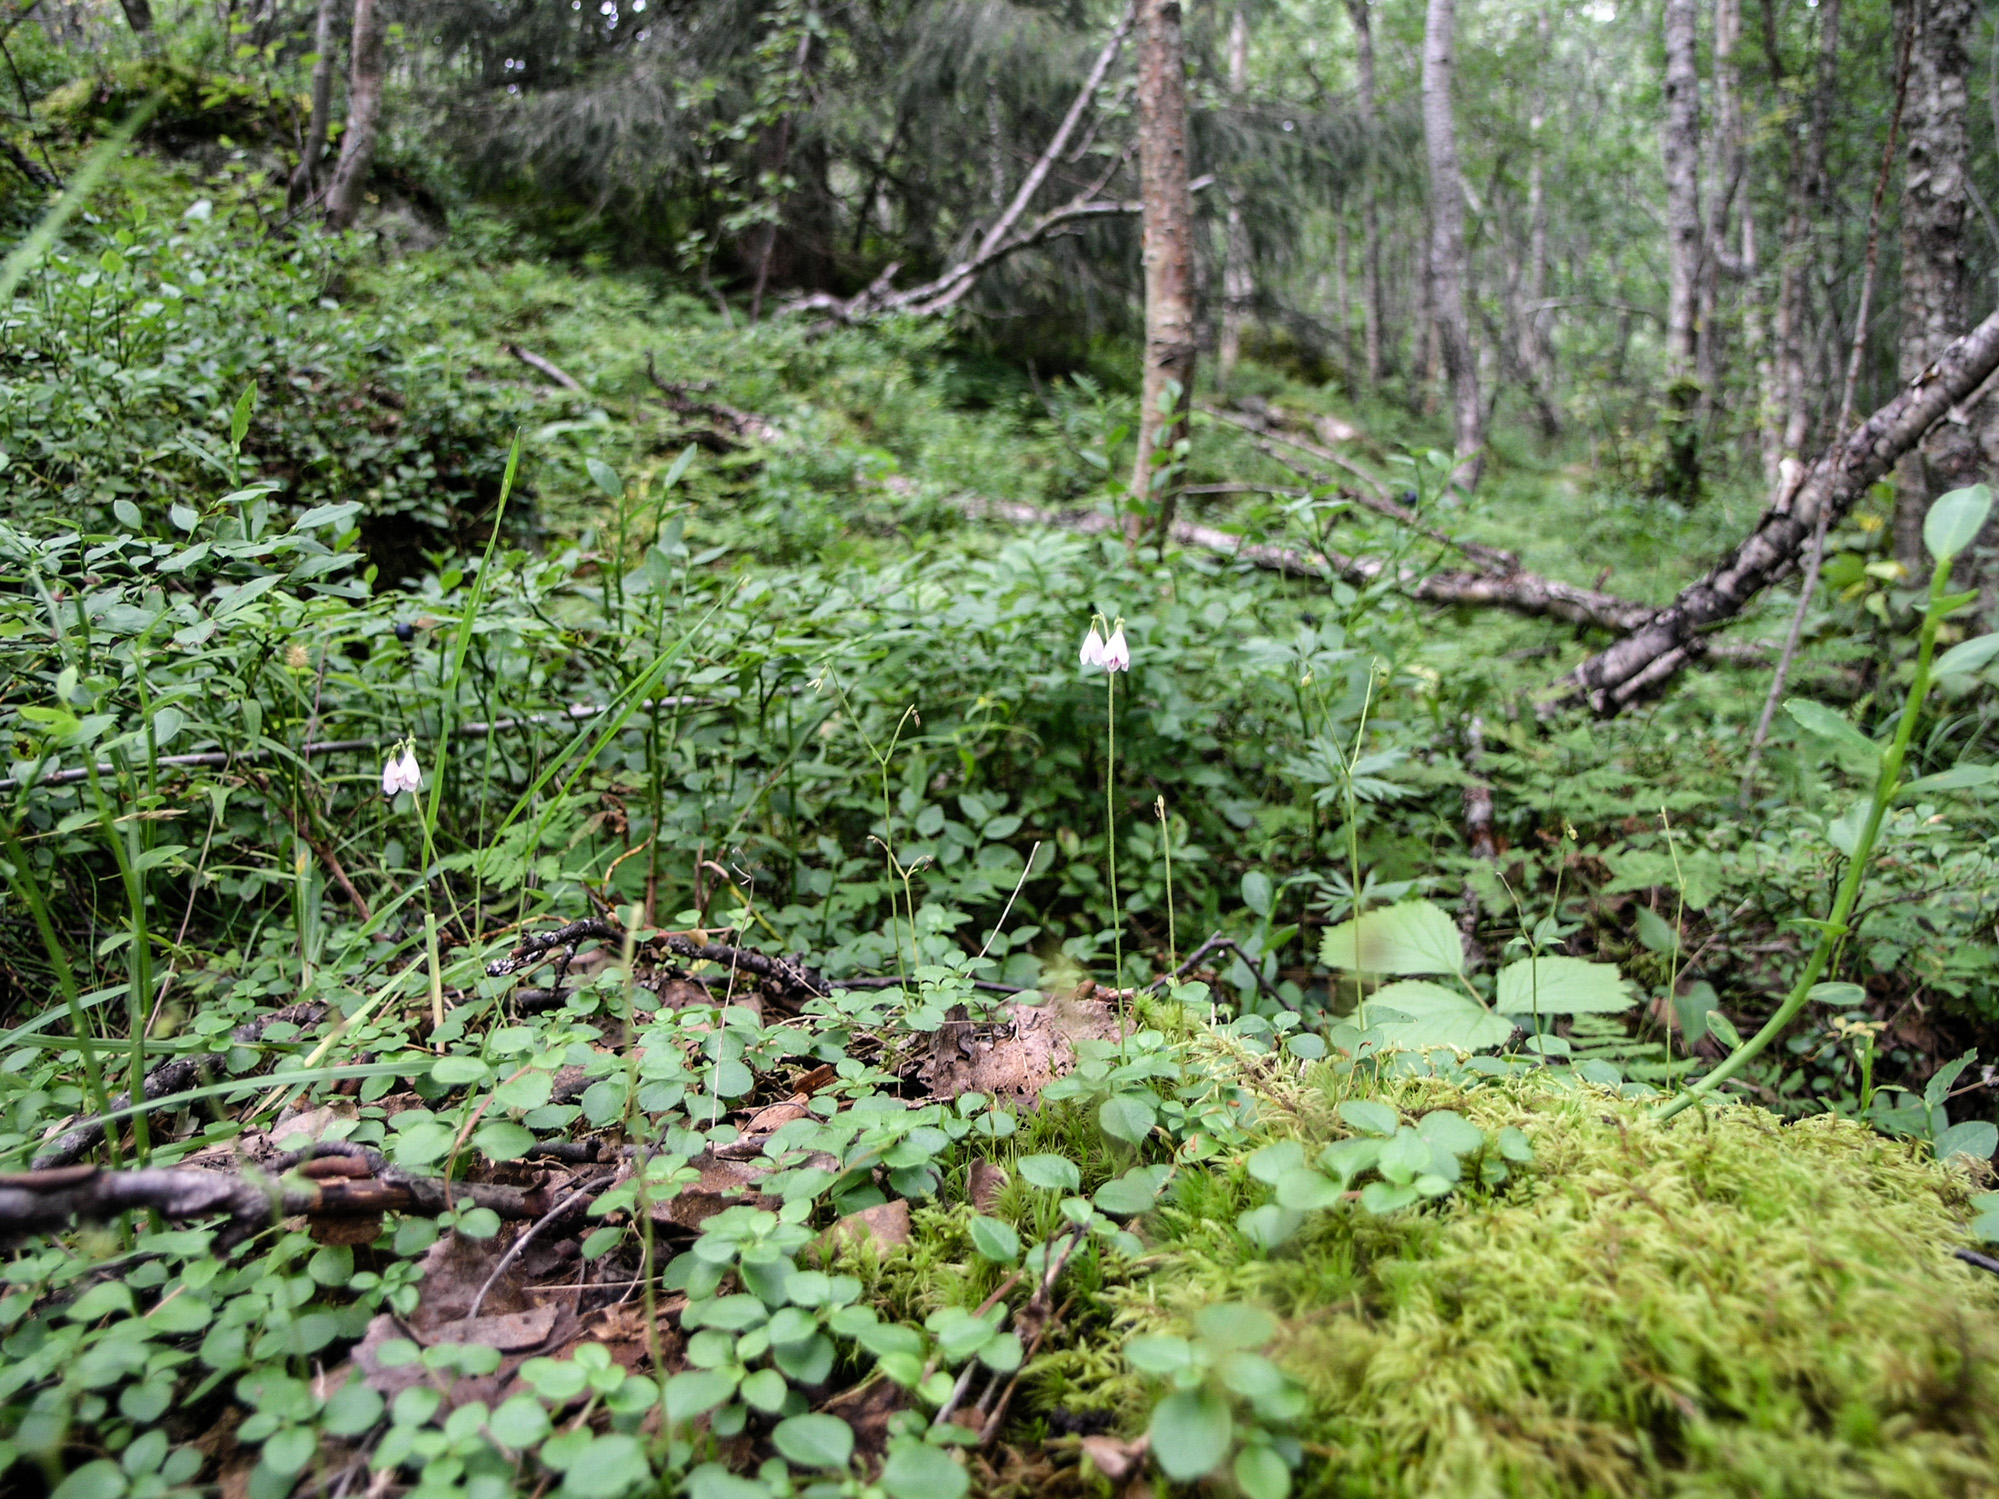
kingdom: Plantae
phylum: Tracheophyta
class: Magnoliopsida
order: Dipsacales
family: Caprifoliaceae
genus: Linnaea
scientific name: Linnaea borealis
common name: Twinflower
